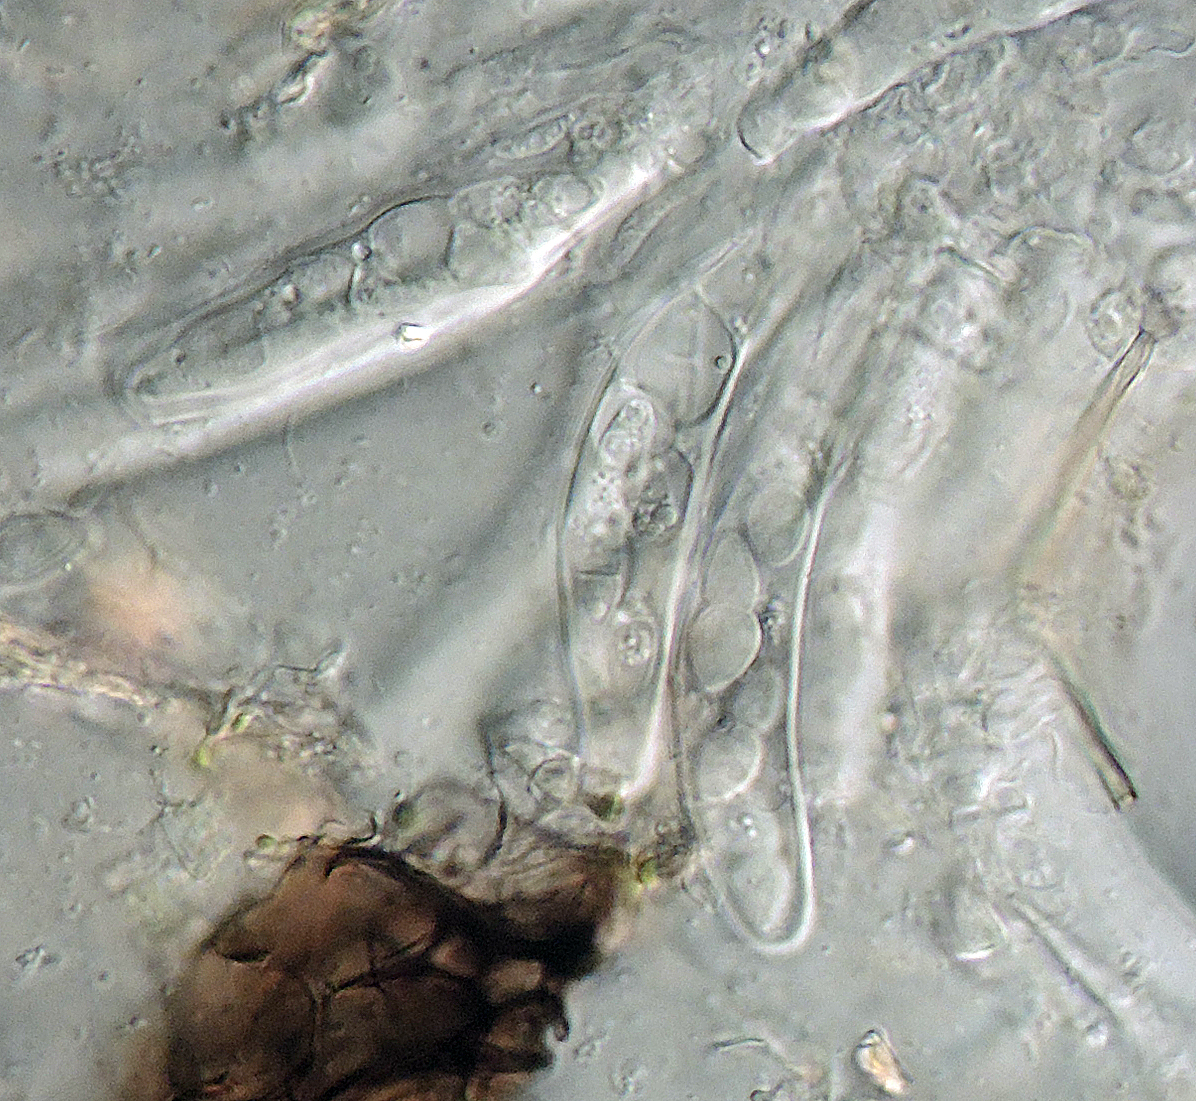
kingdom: Fungi
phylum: Ascomycota
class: Dothideomycetes
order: Pleosporales
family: Didymellaceae
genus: Neodidymelliopsis
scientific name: Neodidymelliopsis cannabis
